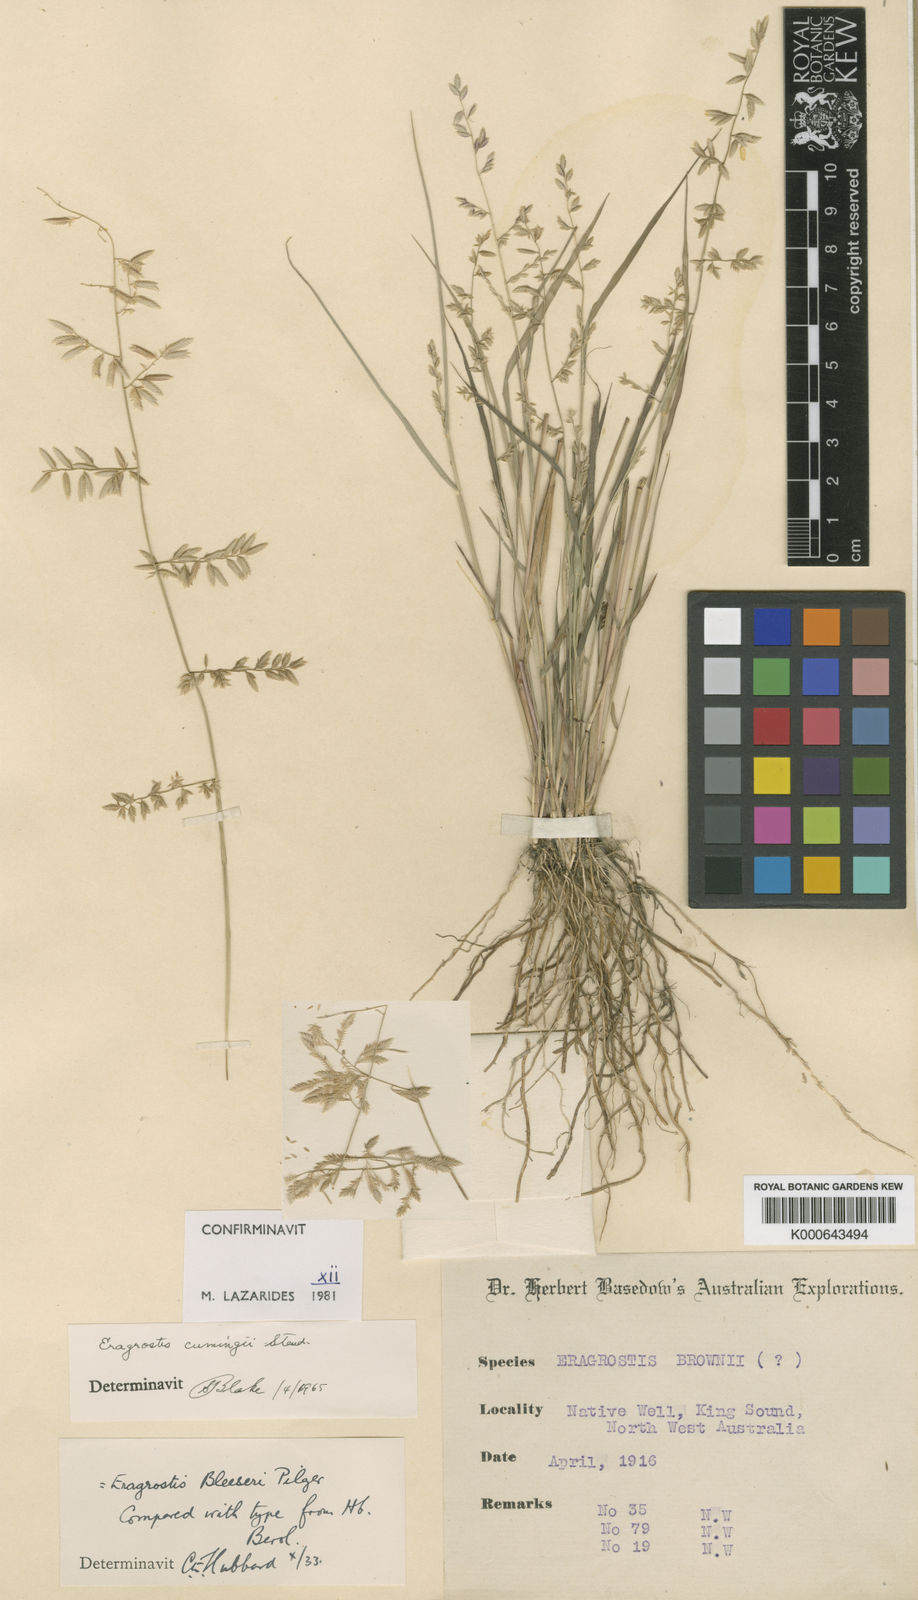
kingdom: Plantae
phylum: Tracheophyta
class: Liliopsida
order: Poales
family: Poaceae
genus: Eragrostis
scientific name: Eragrostis cumingii
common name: Cuming's lovegrass
